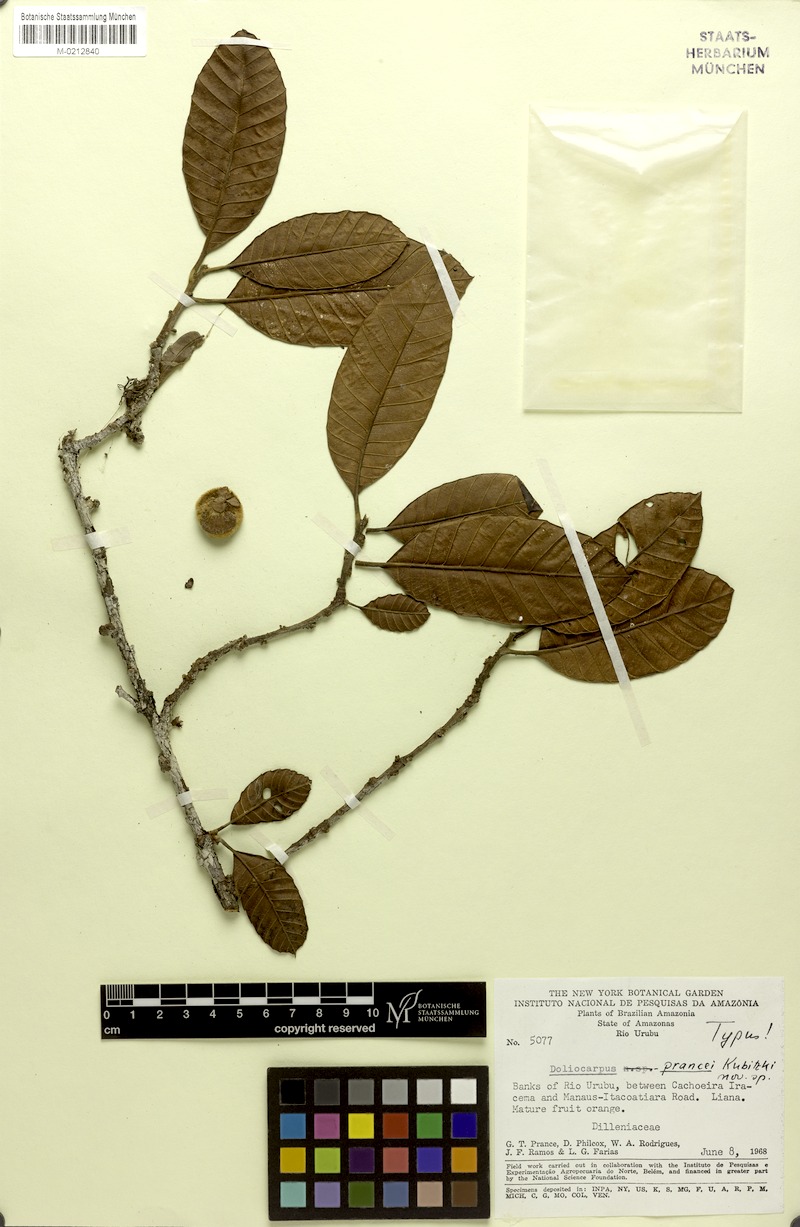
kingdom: Plantae
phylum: Tracheophyta
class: Magnoliopsida
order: Dilleniales
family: Dilleniaceae
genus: Doliocarpus
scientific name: Doliocarpus prancei
